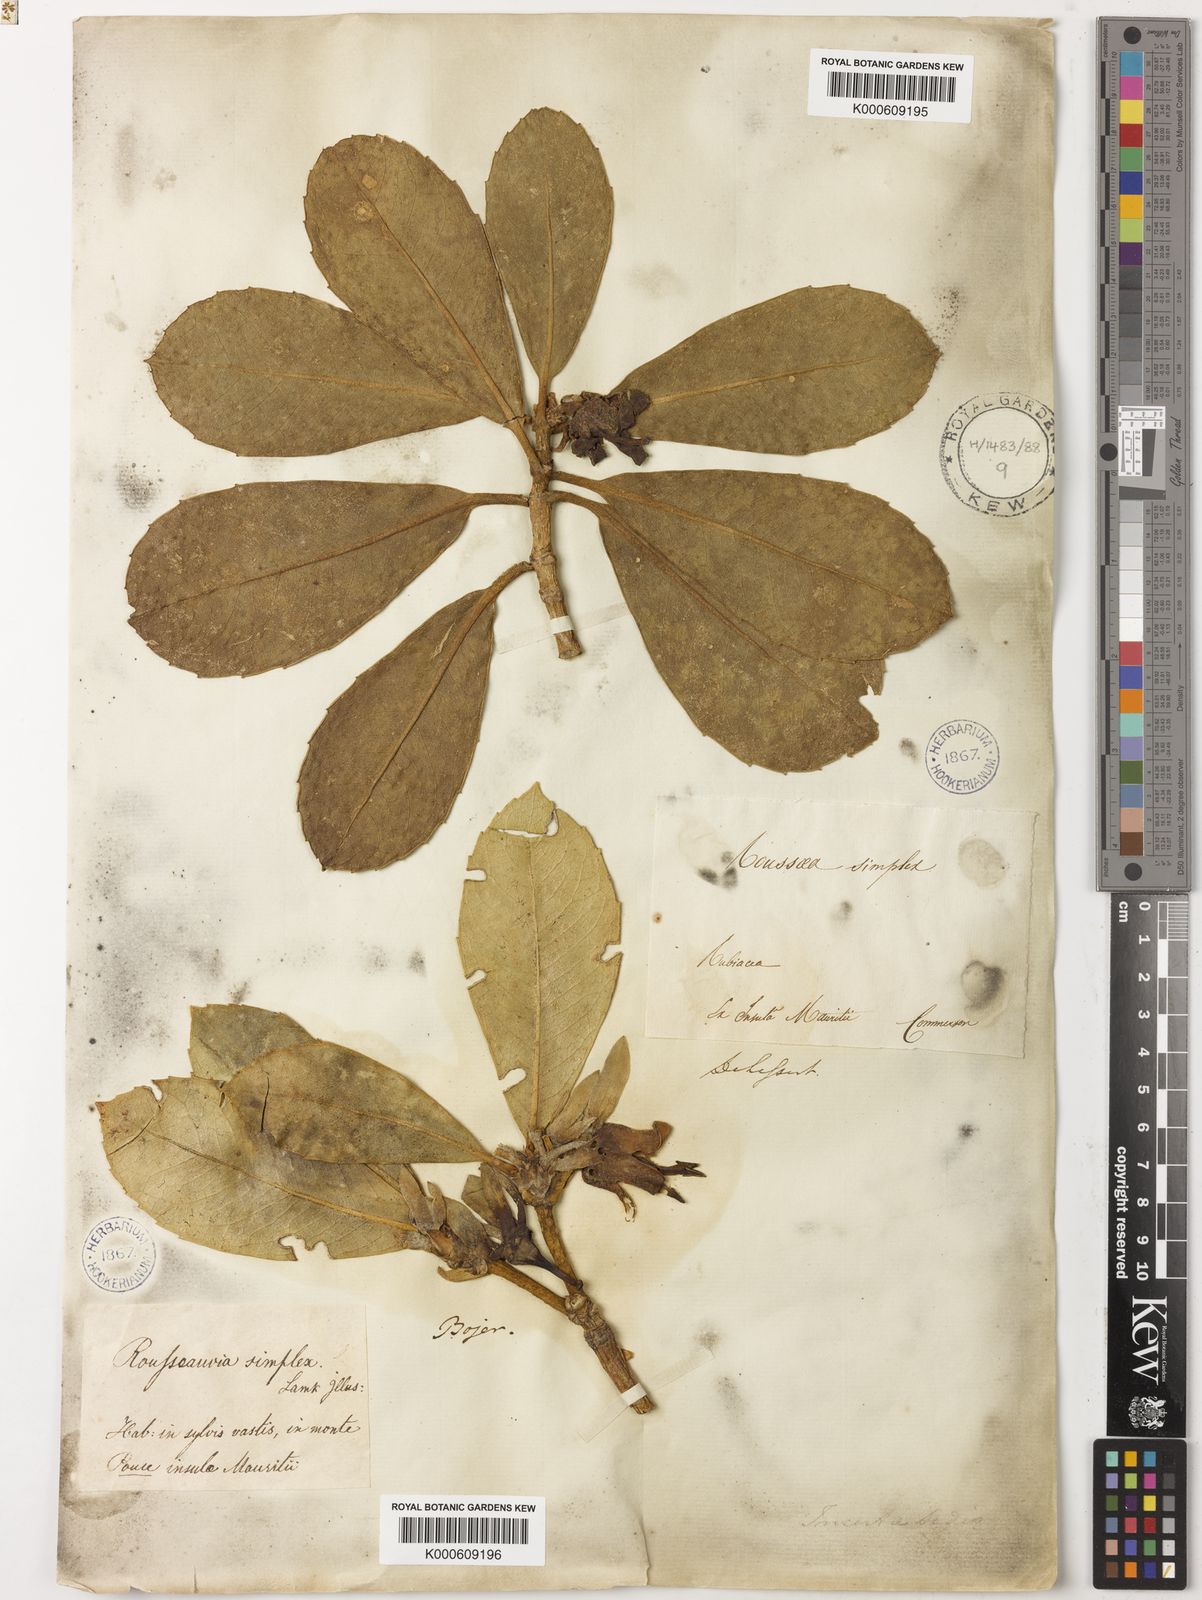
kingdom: Plantae
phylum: Tracheophyta
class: Magnoliopsida
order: Asterales
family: Rousseaceae
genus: Roussea
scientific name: Roussea simplex
